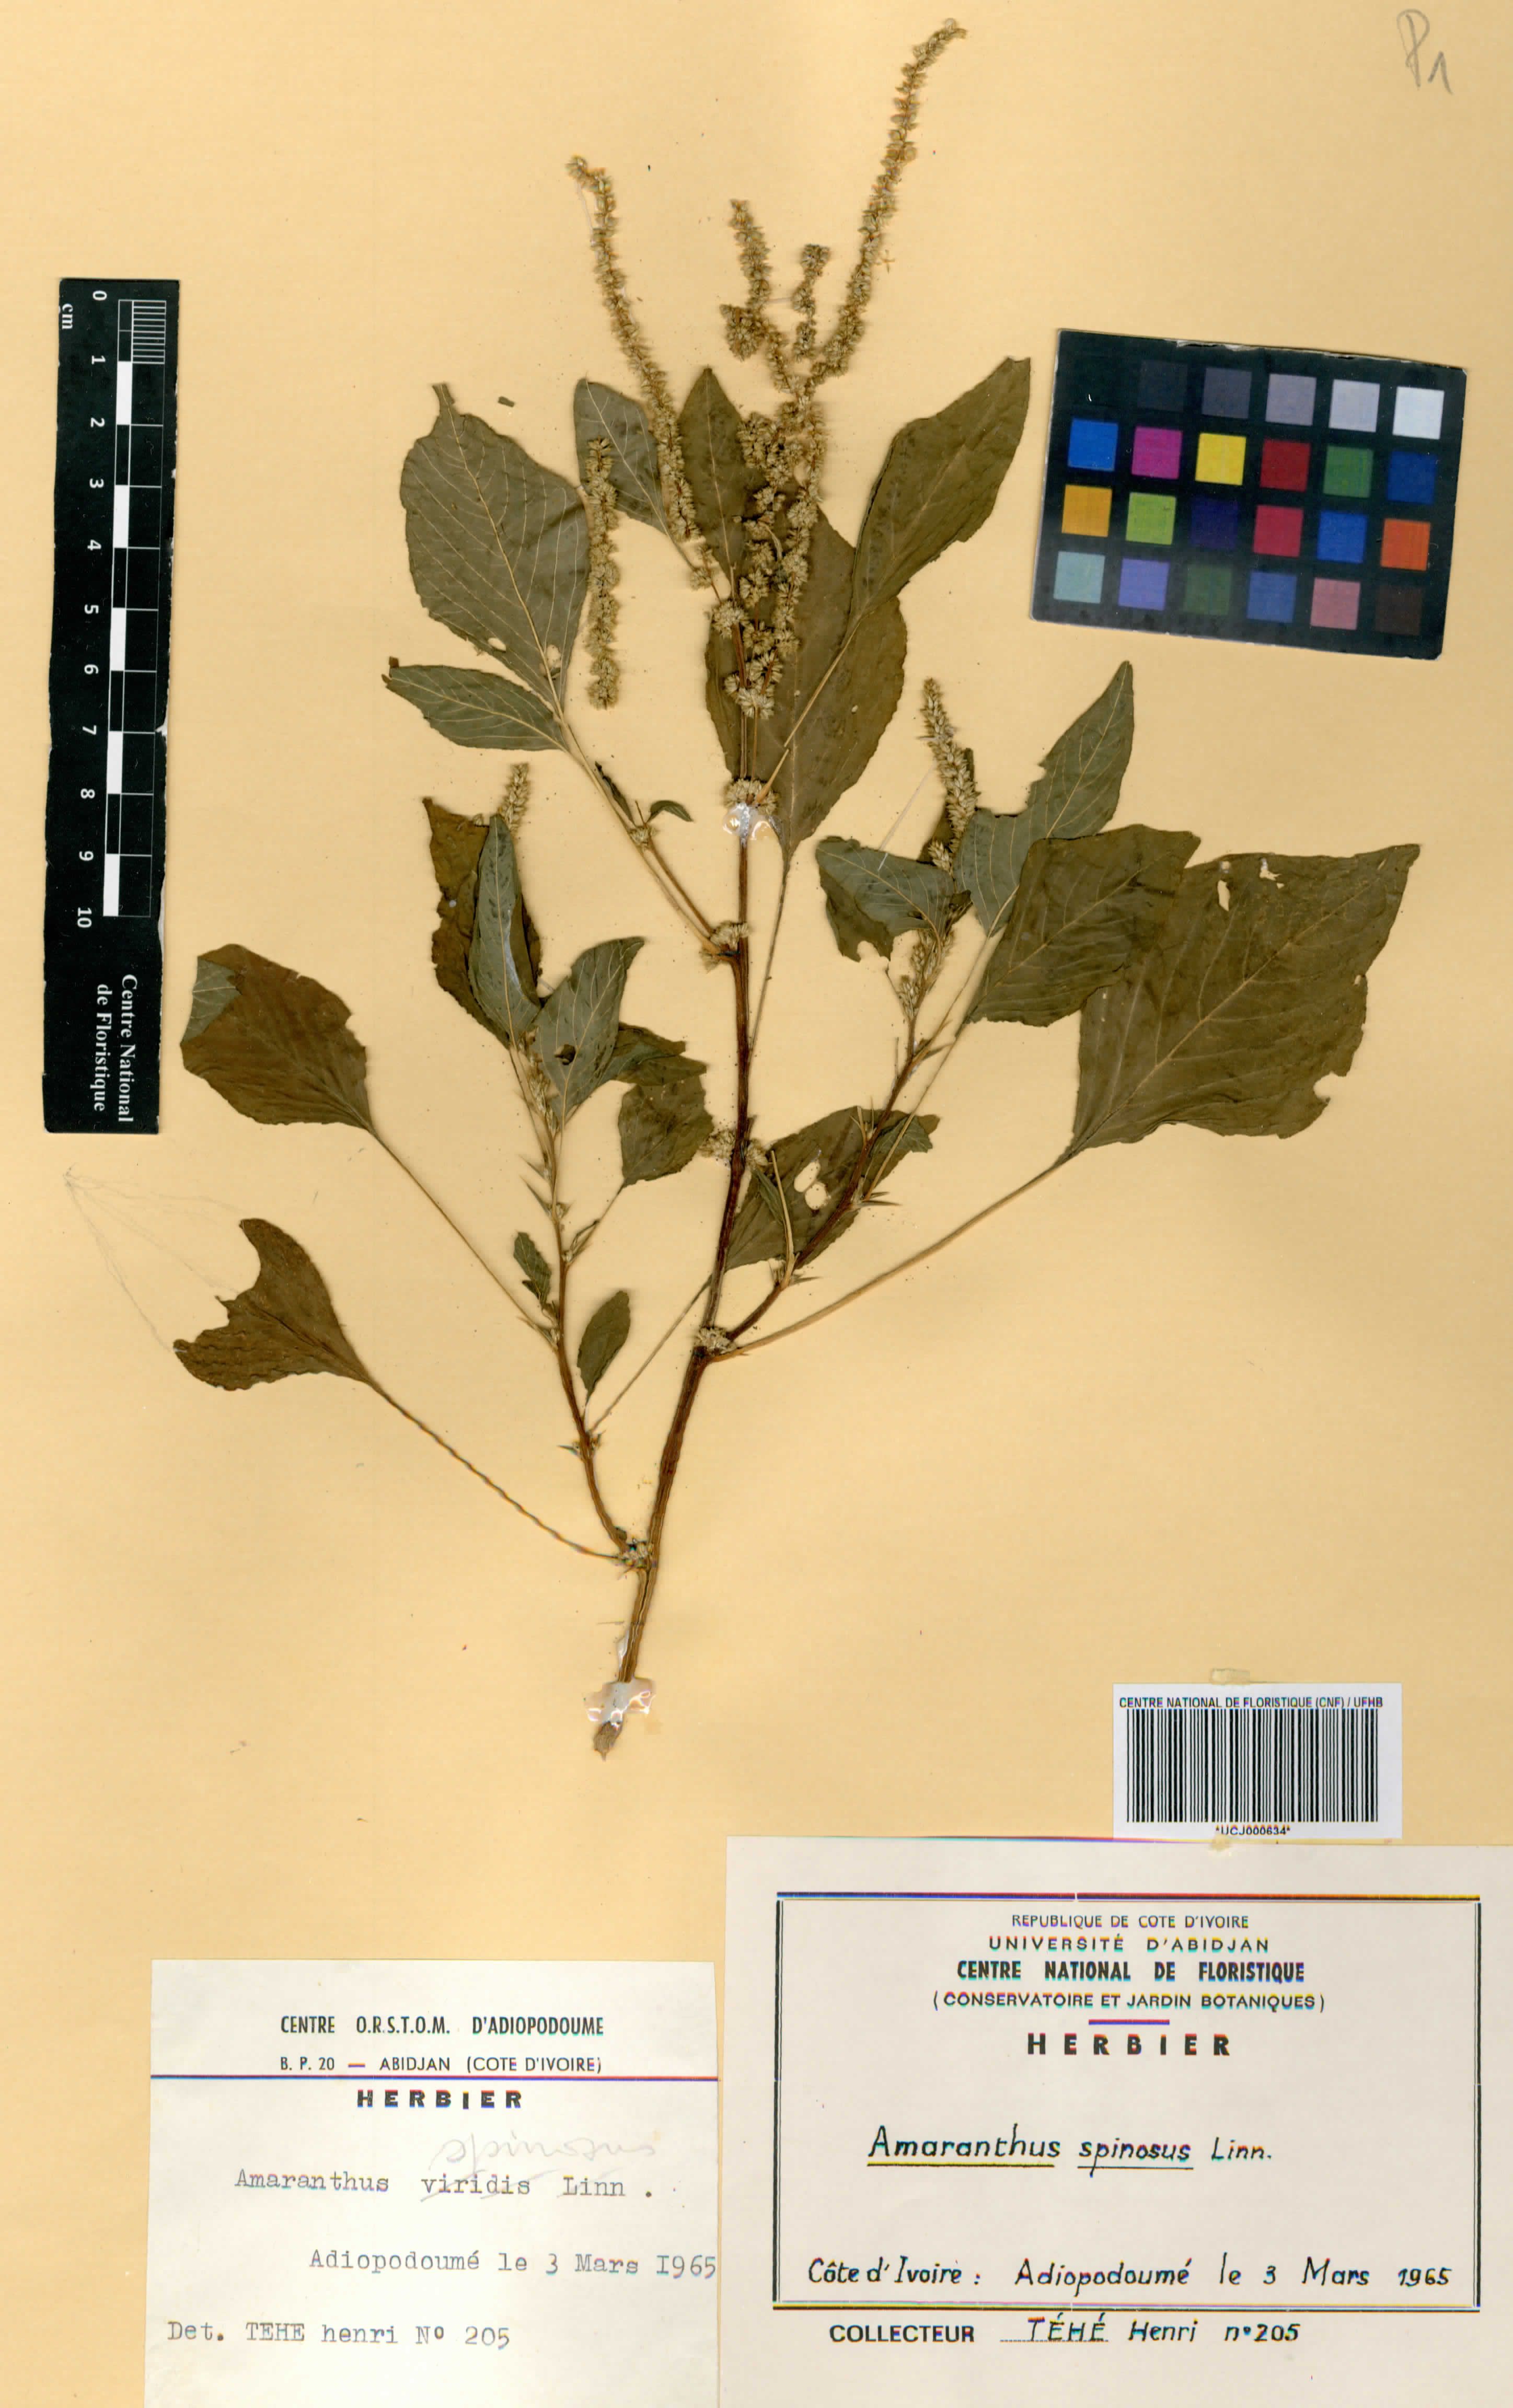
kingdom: Plantae
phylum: Tracheophyta
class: Magnoliopsida
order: Caryophyllales
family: Amaranthaceae
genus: Amaranthus
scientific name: Amaranthus spinosus
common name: Spiny amaranth
